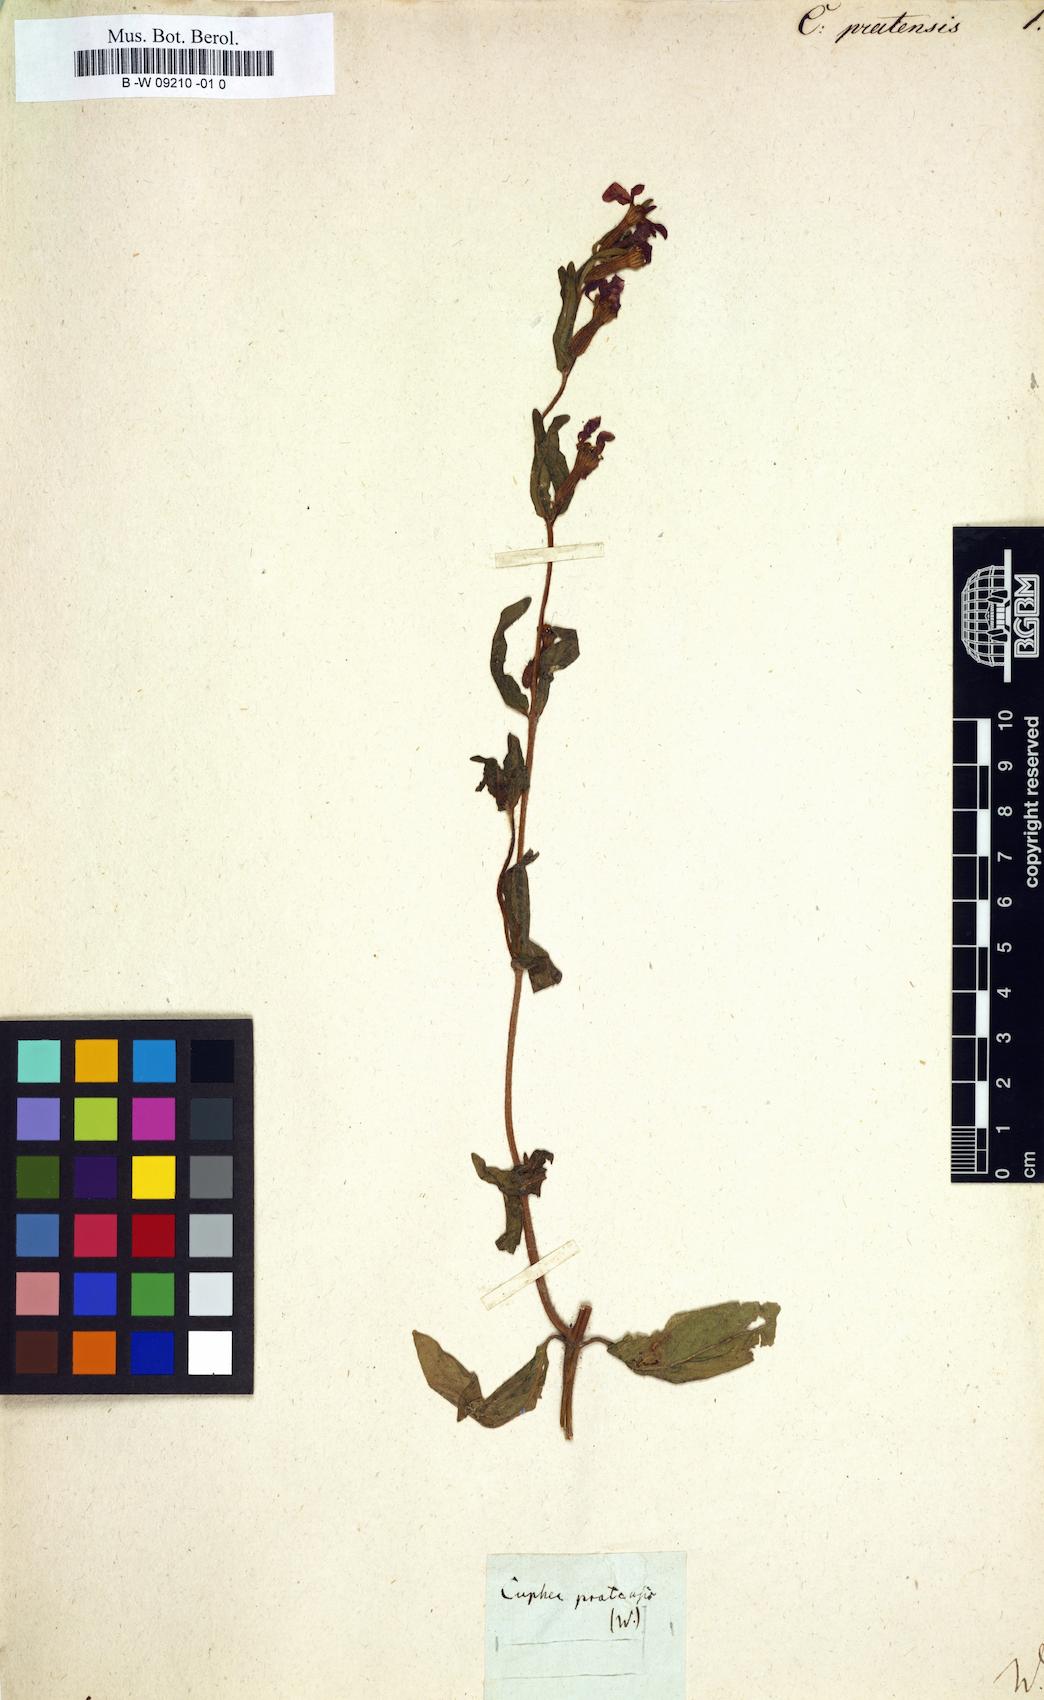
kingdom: Plantae
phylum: Tracheophyta
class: Magnoliopsida
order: Myrtales
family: Lythraceae
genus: Cuphea
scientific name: Cuphea
